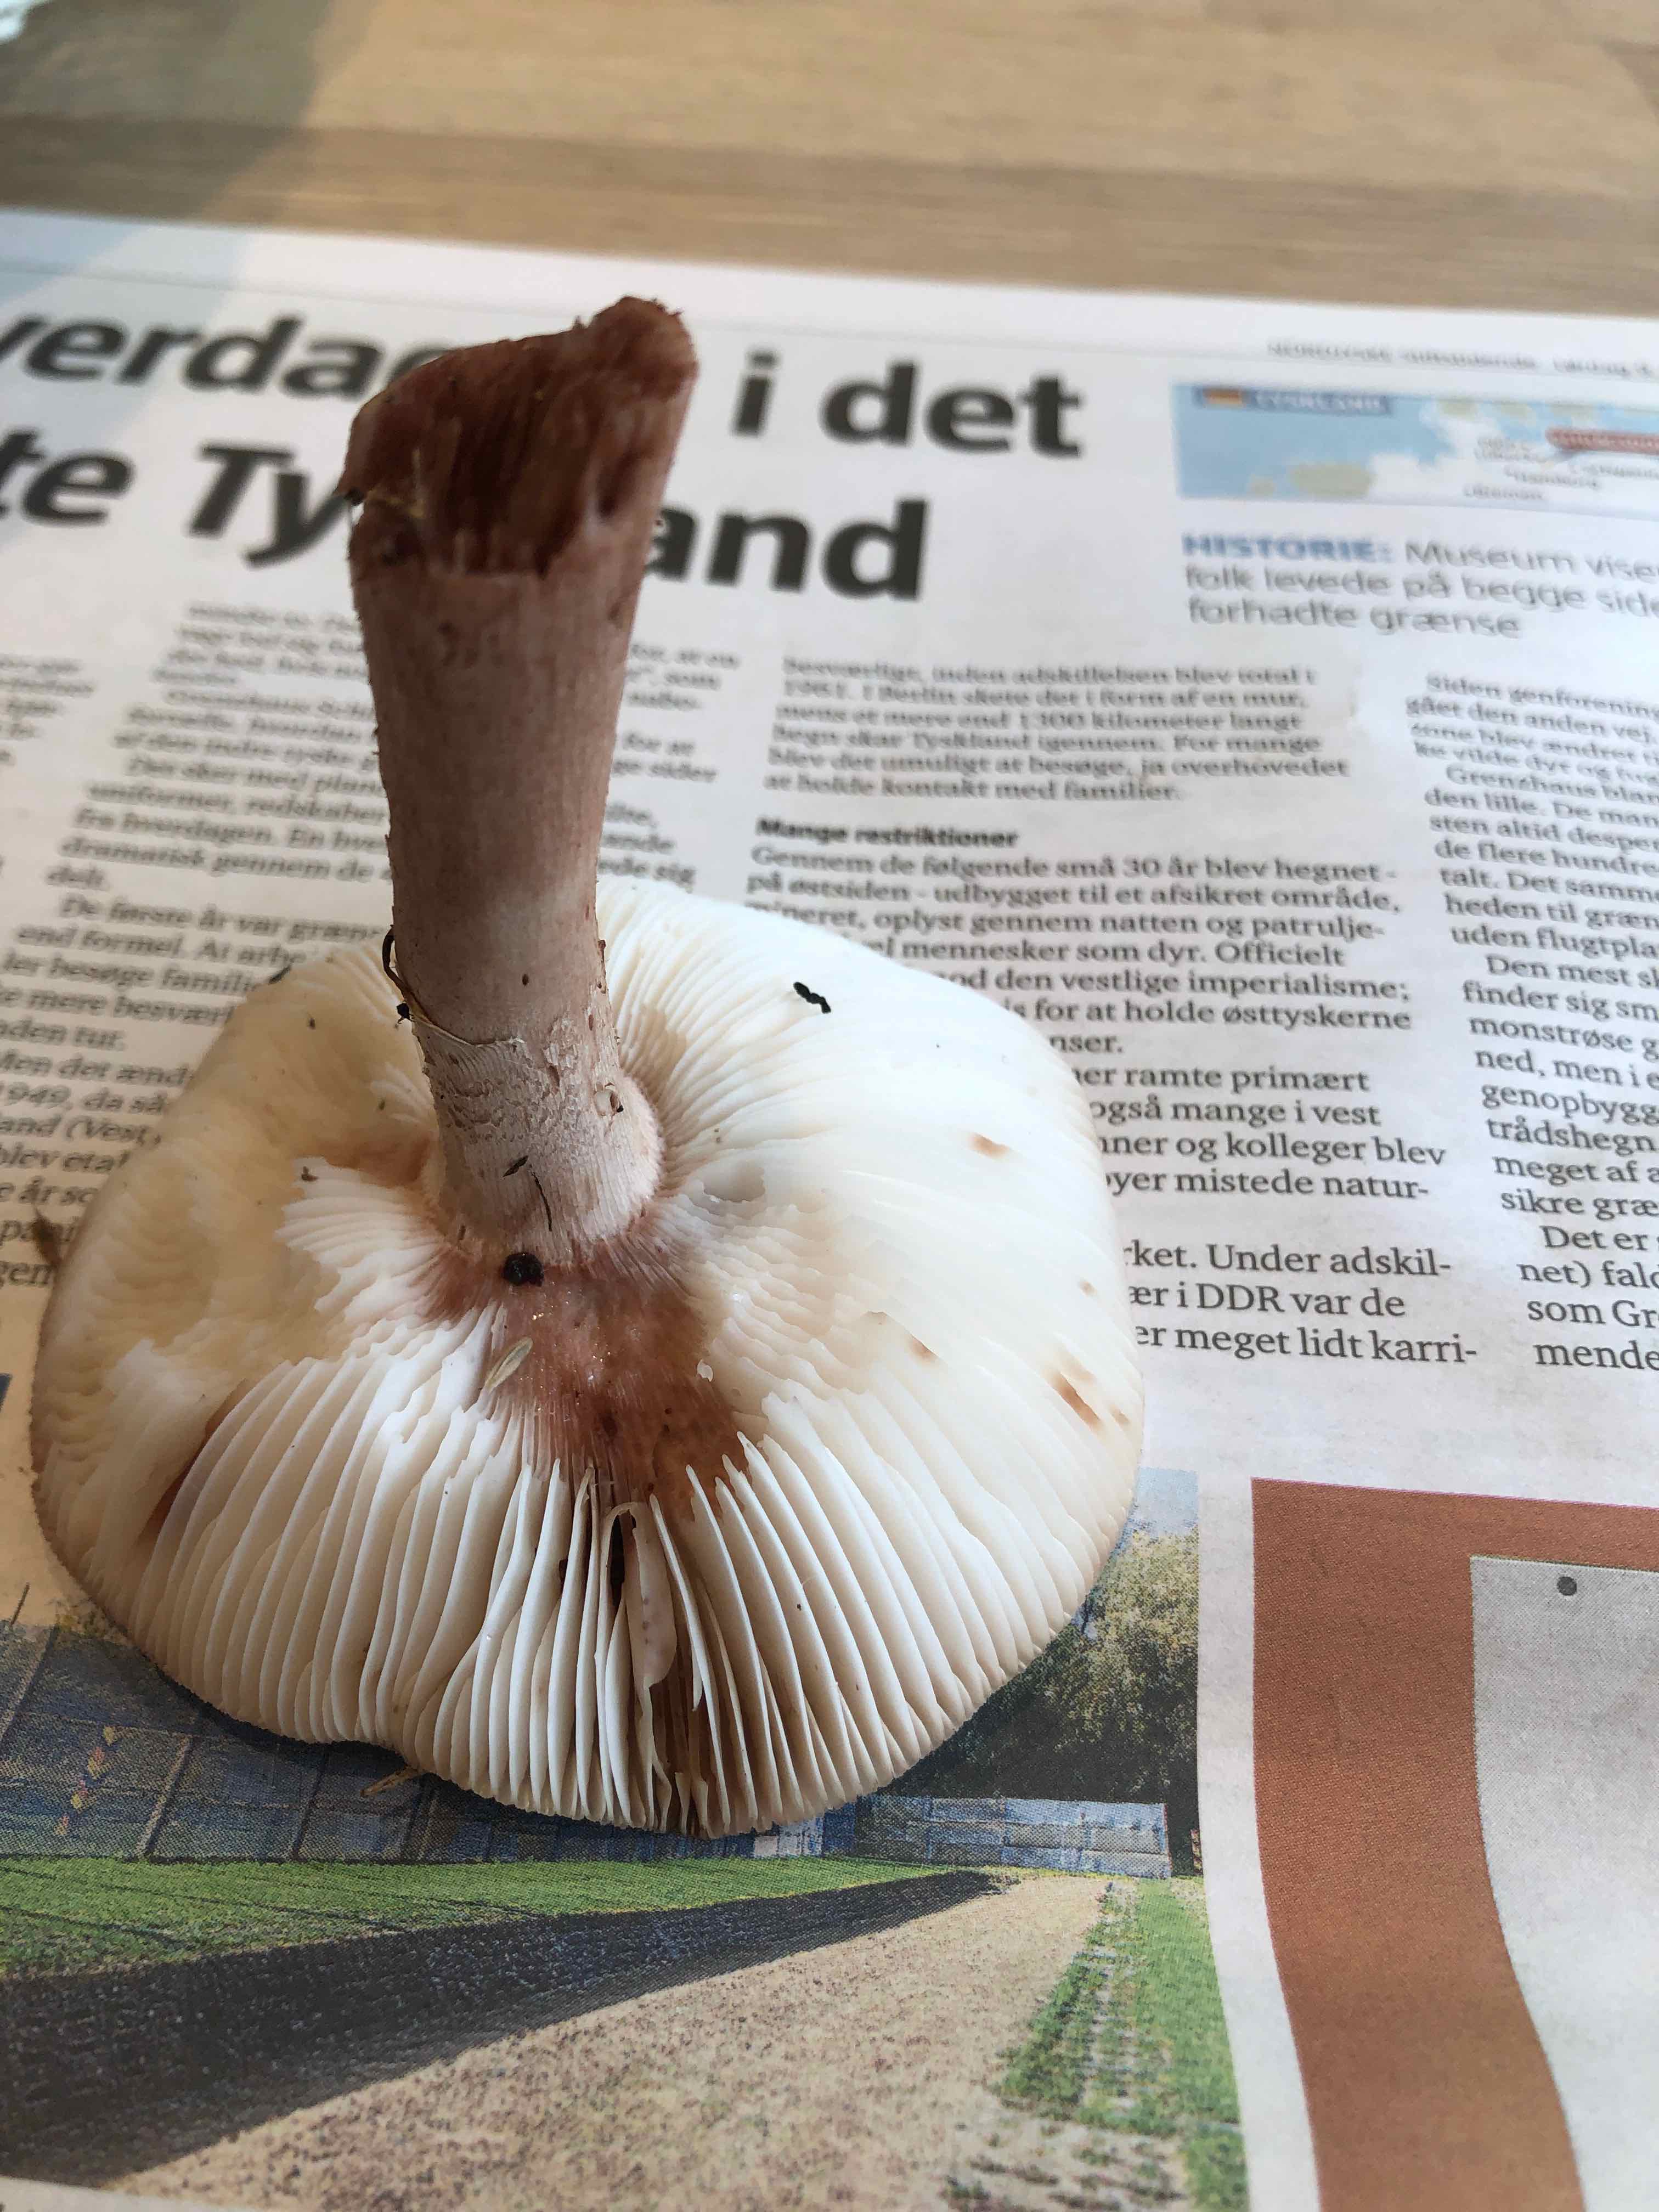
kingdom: Fungi
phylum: Basidiomycota
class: Agaricomycetes
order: Agaricales
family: Amanitaceae
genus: Amanita
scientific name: Amanita rubescens
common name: rødmende fluesvamp
